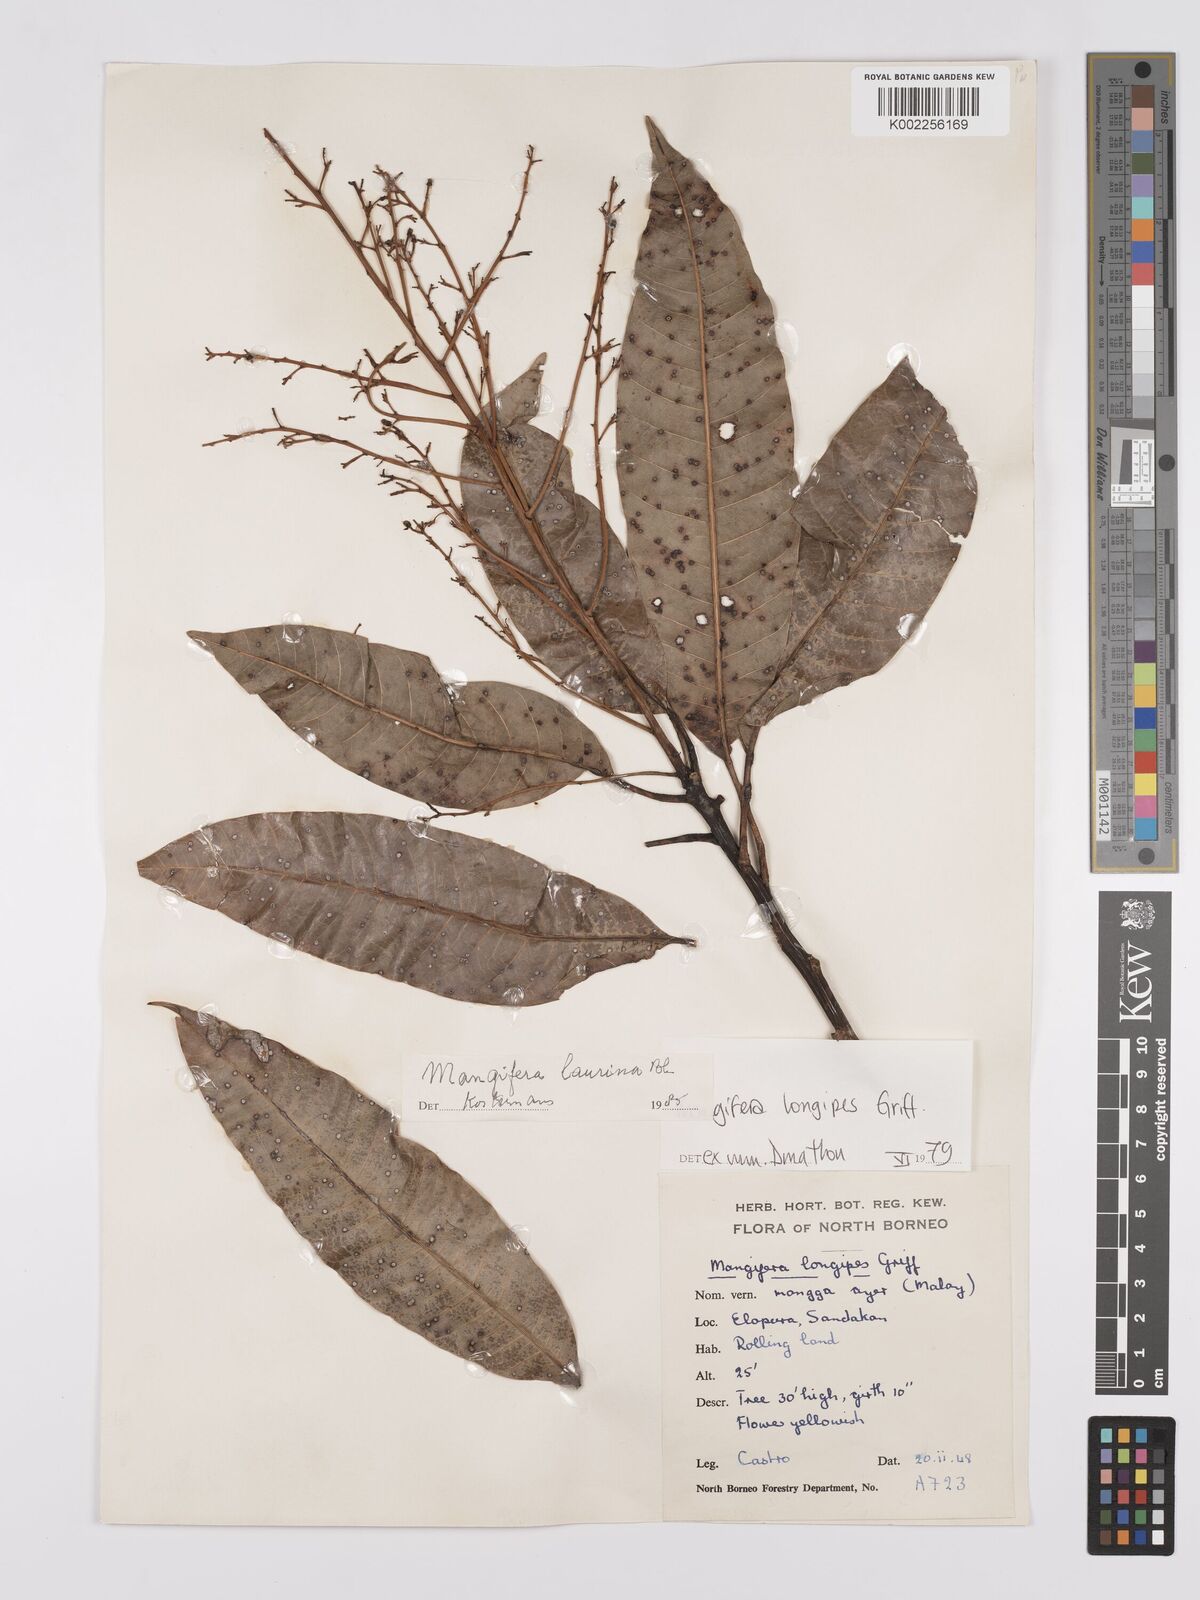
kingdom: Plantae
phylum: Tracheophyta
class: Magnoliopsida
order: Sapindales
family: Anacardiaceae
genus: Mangifera
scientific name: Mangifera laurina
